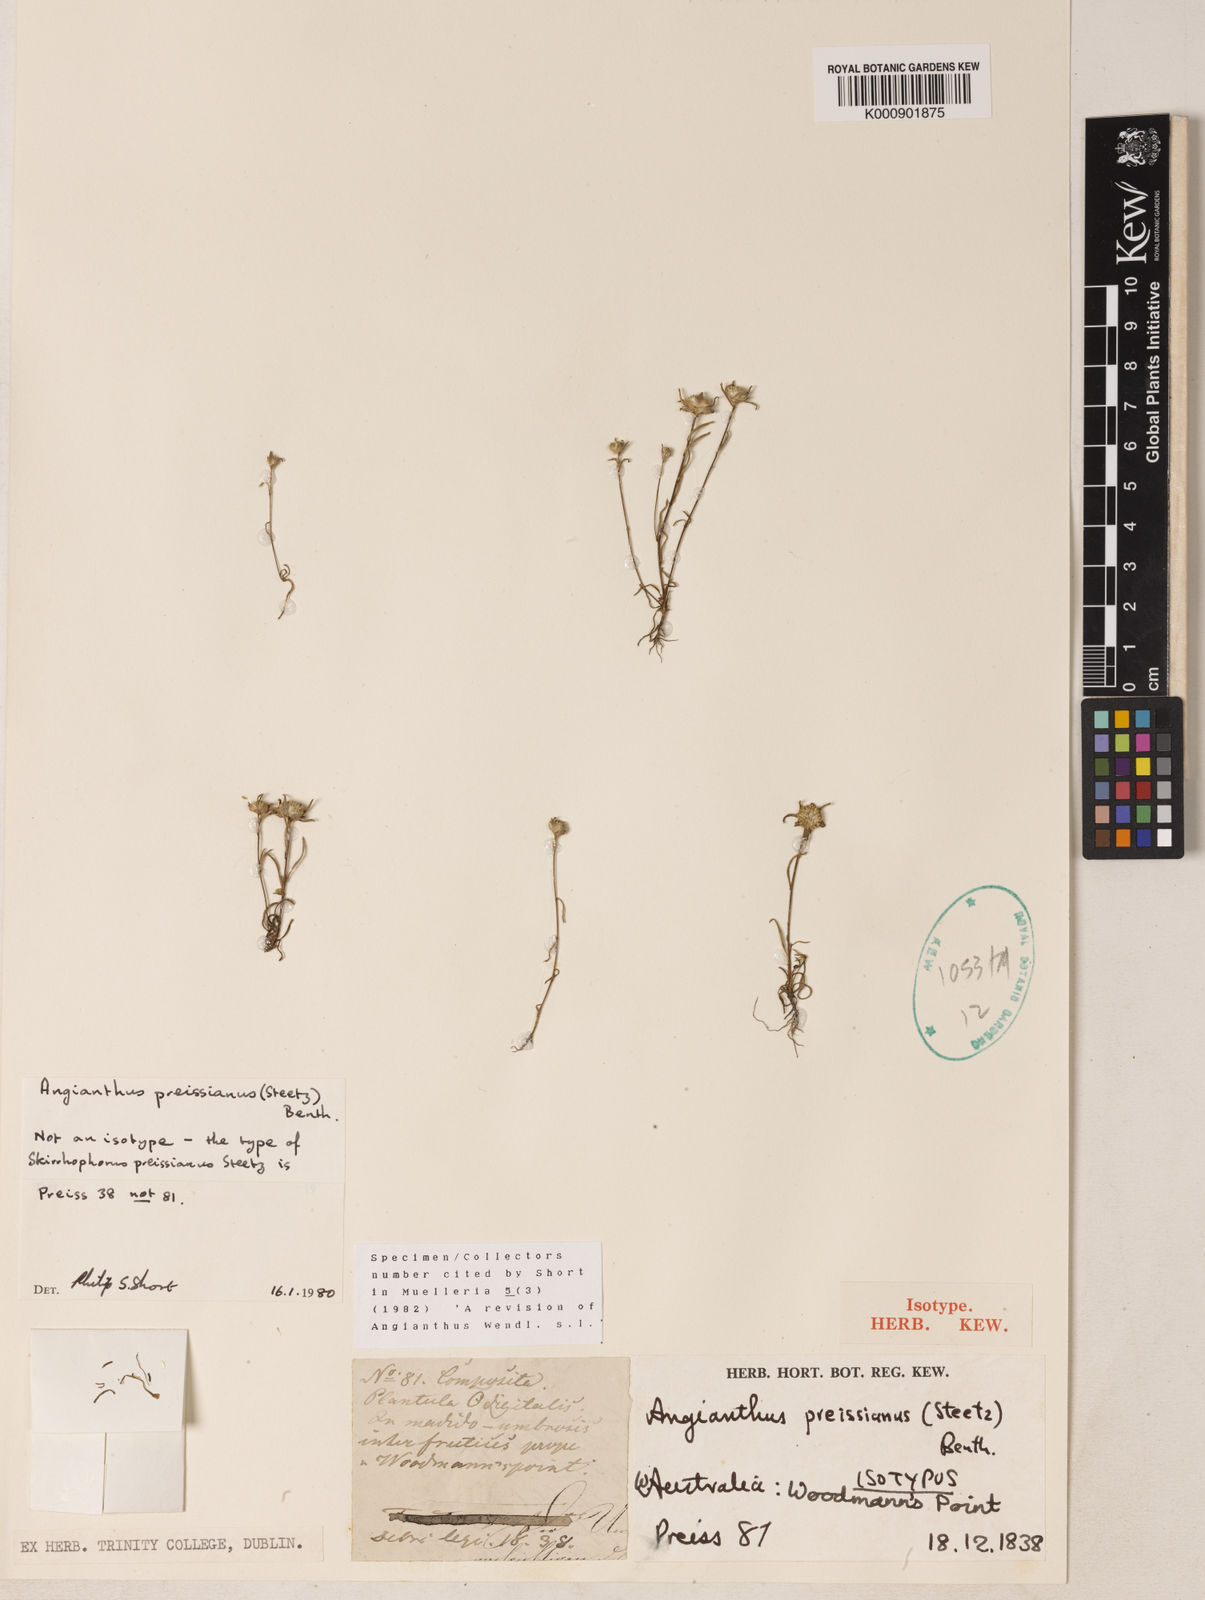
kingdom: Plantae
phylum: Tracheophyta
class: Magnoliopsida
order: Asterales
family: Asteraceae
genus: Angianthus
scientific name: Angianthus preissianus
